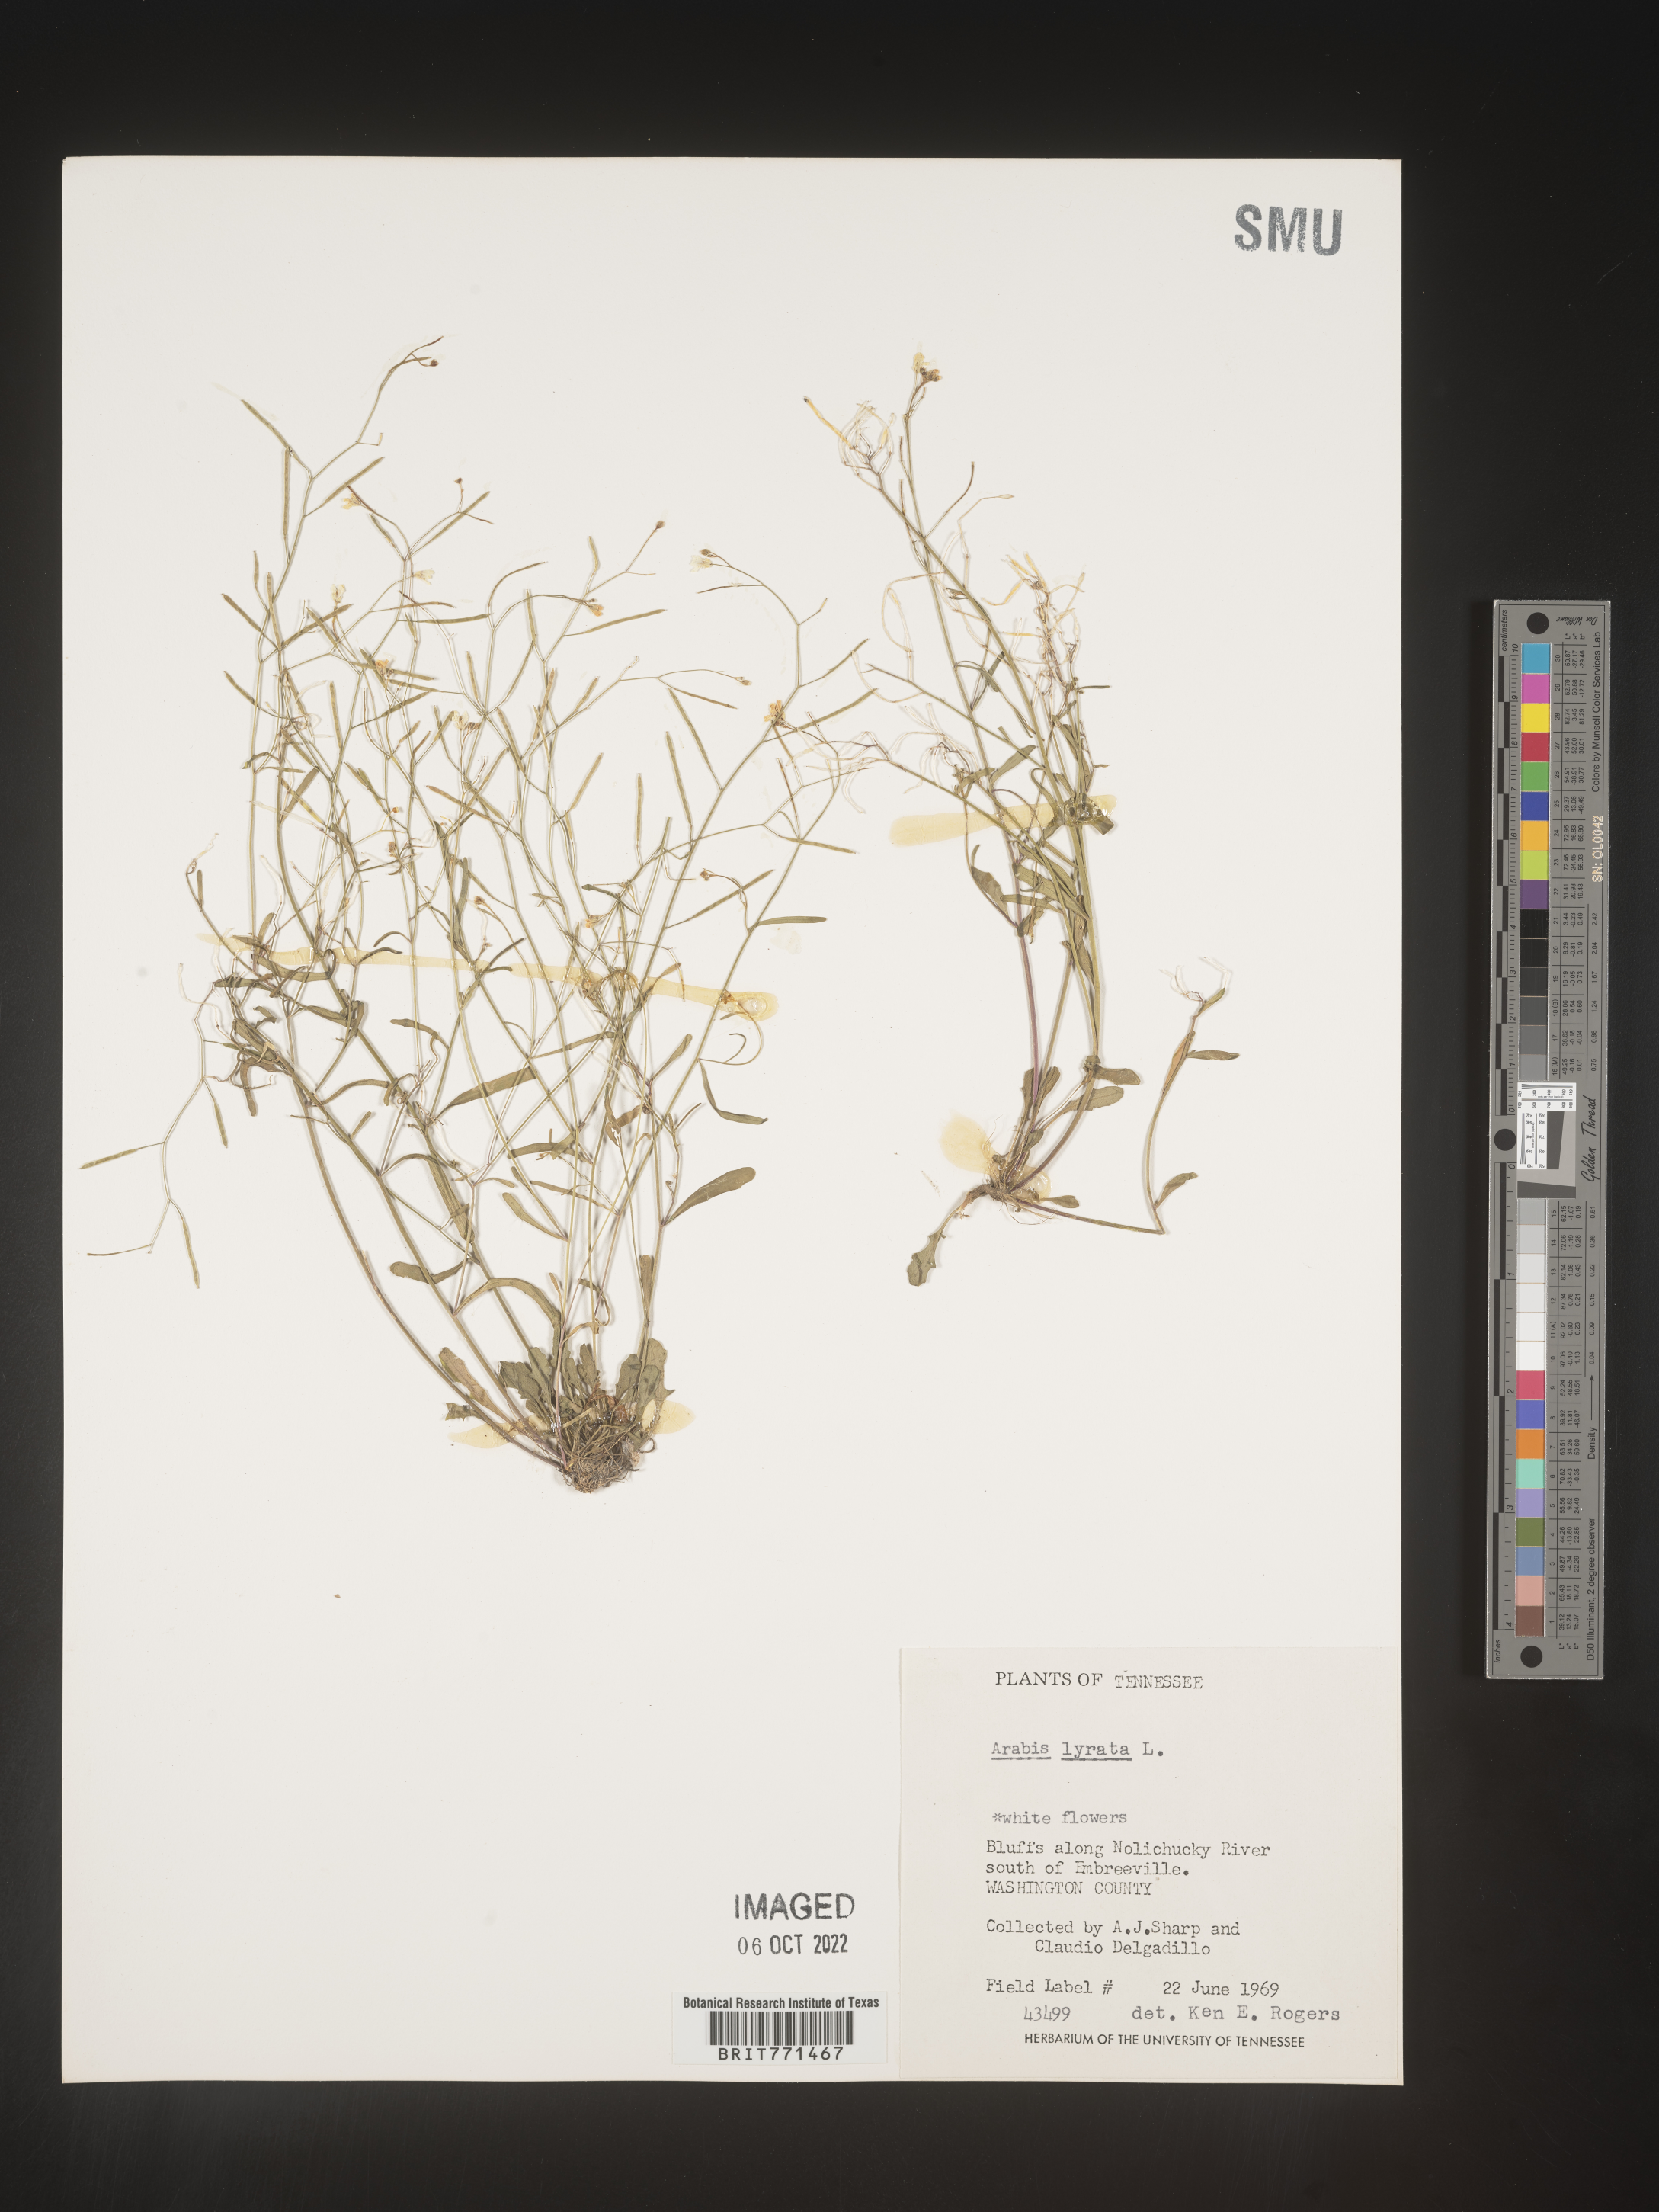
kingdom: Plantae
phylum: Tracheophyta
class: Magnoliopsida
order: Brassicales
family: Brassicaceae
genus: Arabidopsis
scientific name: Arabidopsis lyrata
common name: Lyrate rockcress
